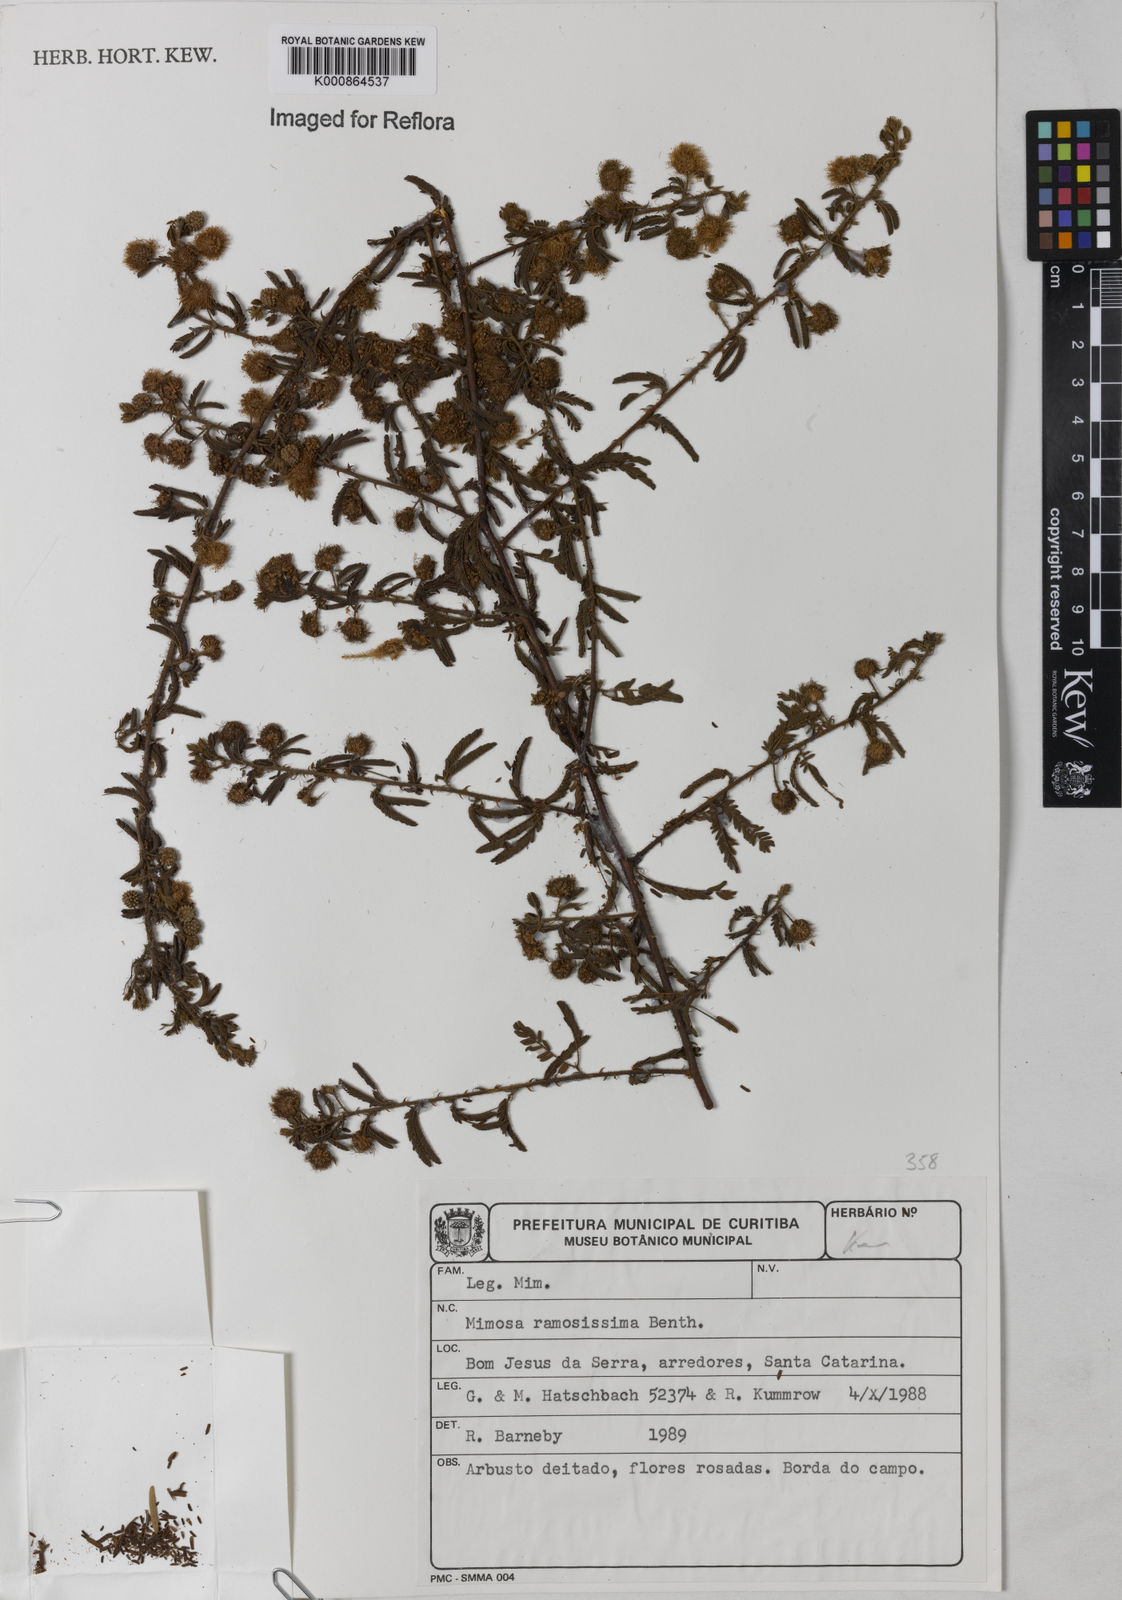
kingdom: Plantae
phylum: Tracheophyta
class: Magnoliopsida
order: Fabales
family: Fabaceae
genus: Mimosa
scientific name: Mimosa ramosissima
